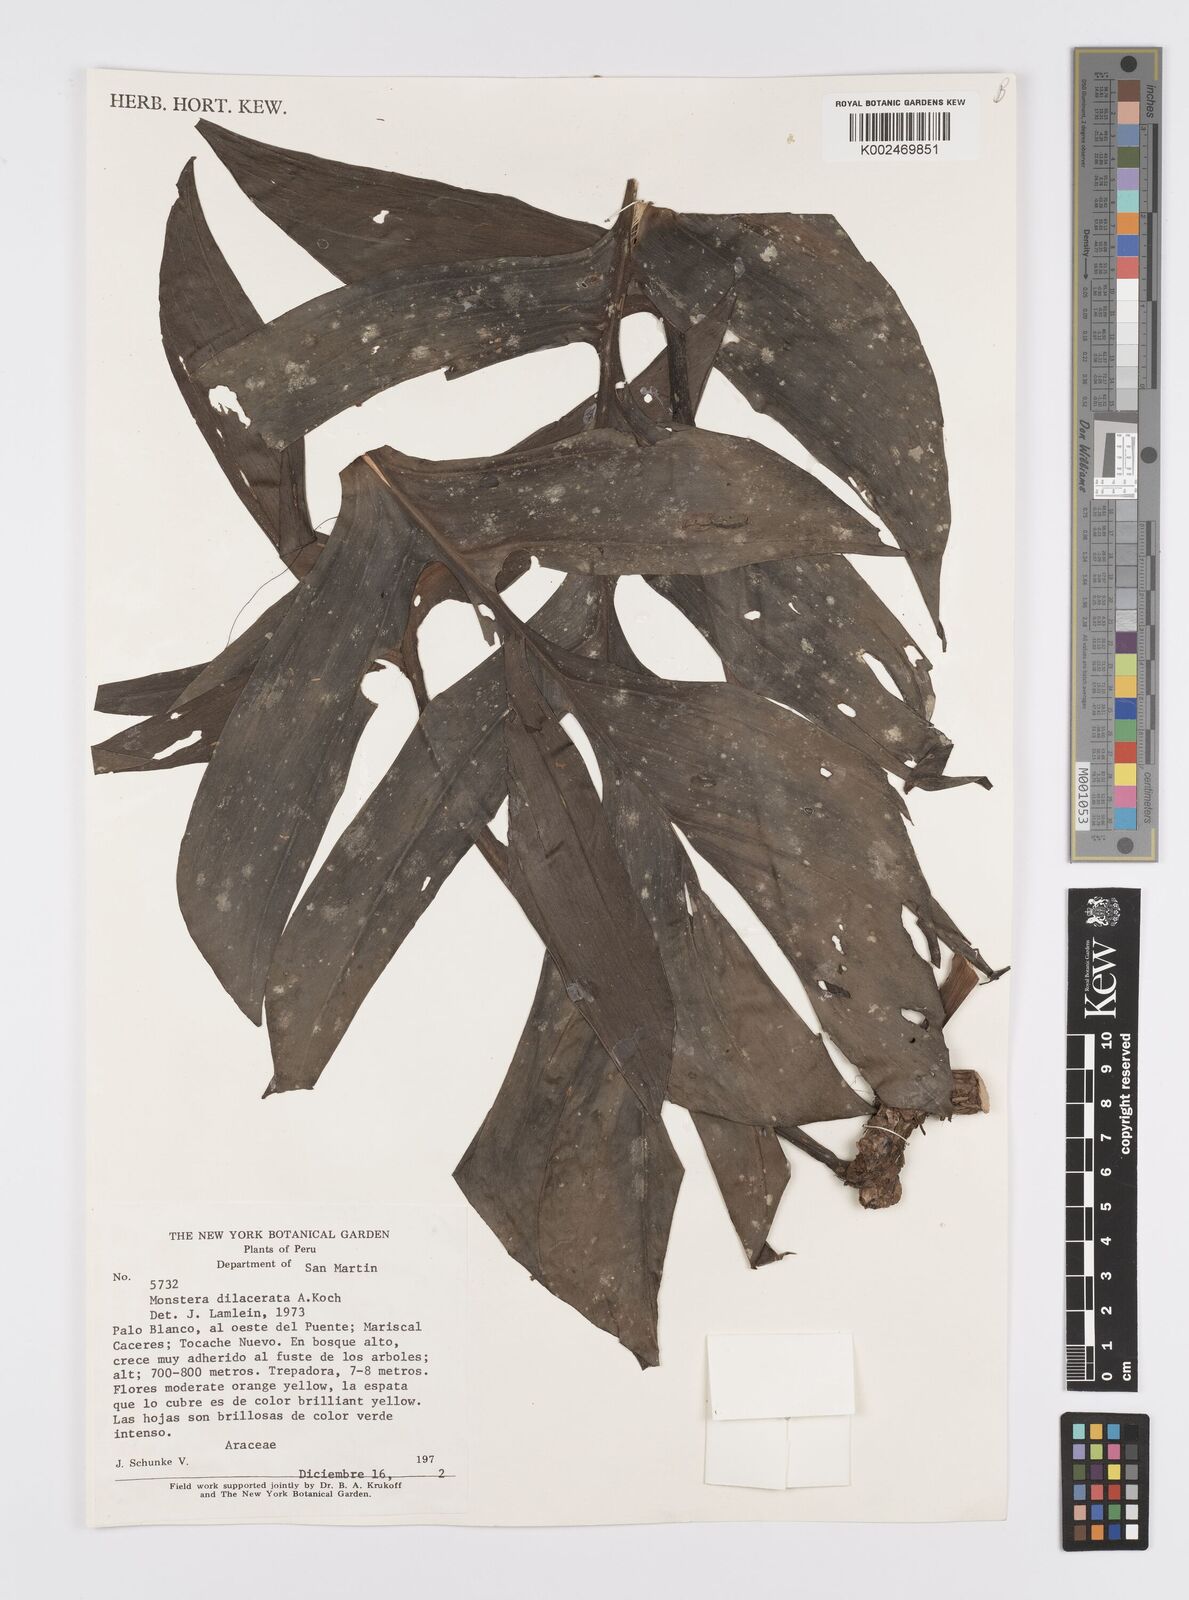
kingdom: Plantae
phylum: Tracheophyta
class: Liliopsida
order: Alismatales
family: Araceae
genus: Monstera
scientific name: Monstera dissecta
